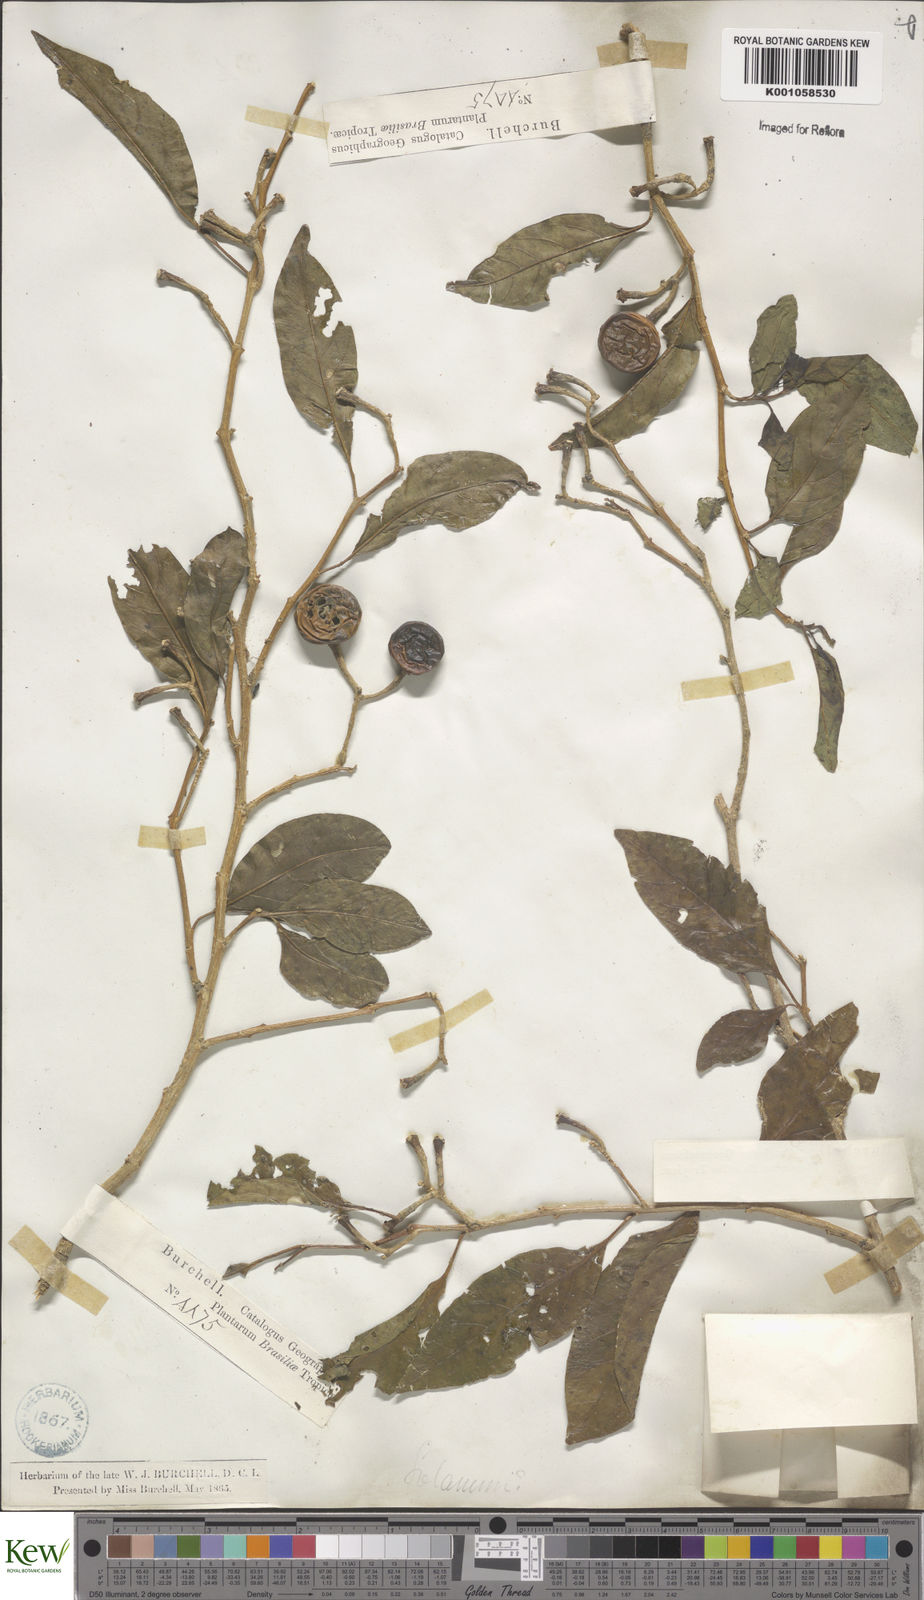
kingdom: Plantae
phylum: Tracheophyta
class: Magnoliopsida
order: Solanales
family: Solanaceae
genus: Solanum
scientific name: Solanum pseudoquina
